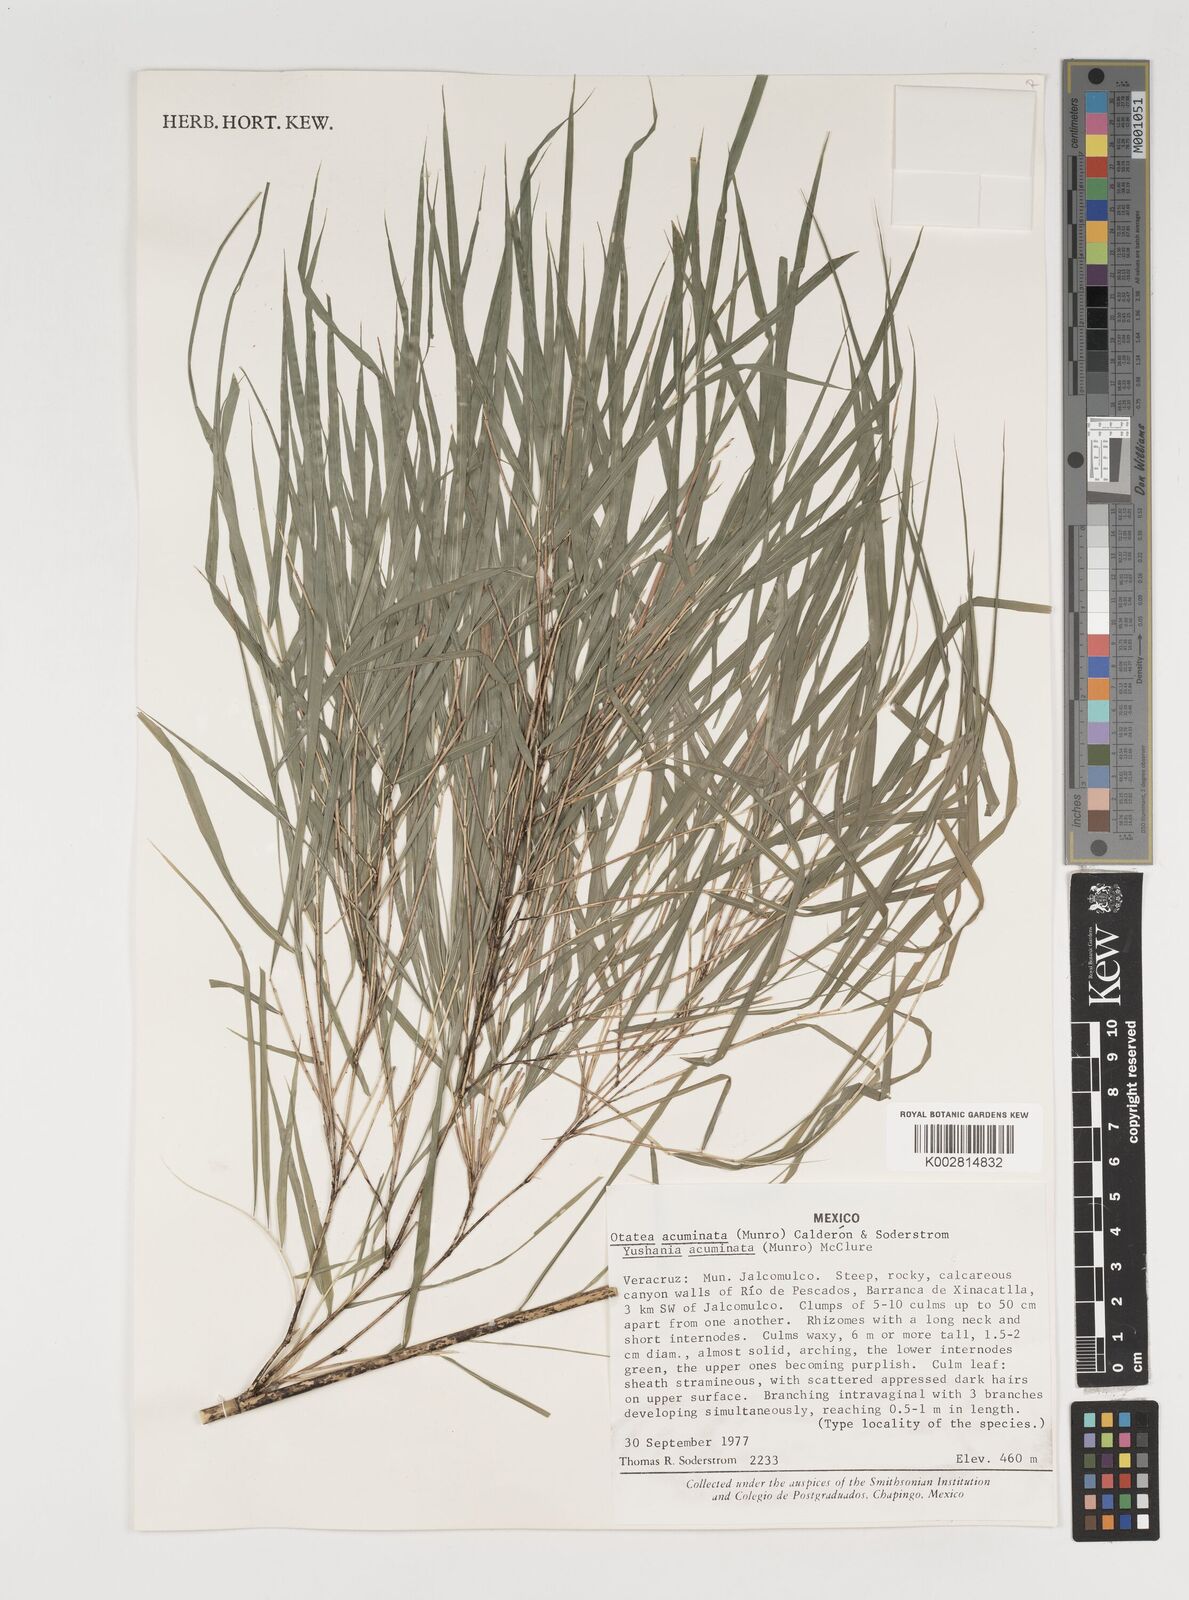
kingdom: Plantae
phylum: Tracheophyta
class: Liliopsida
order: Poales
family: Poaceae
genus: Olmeca
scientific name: Olmeca
